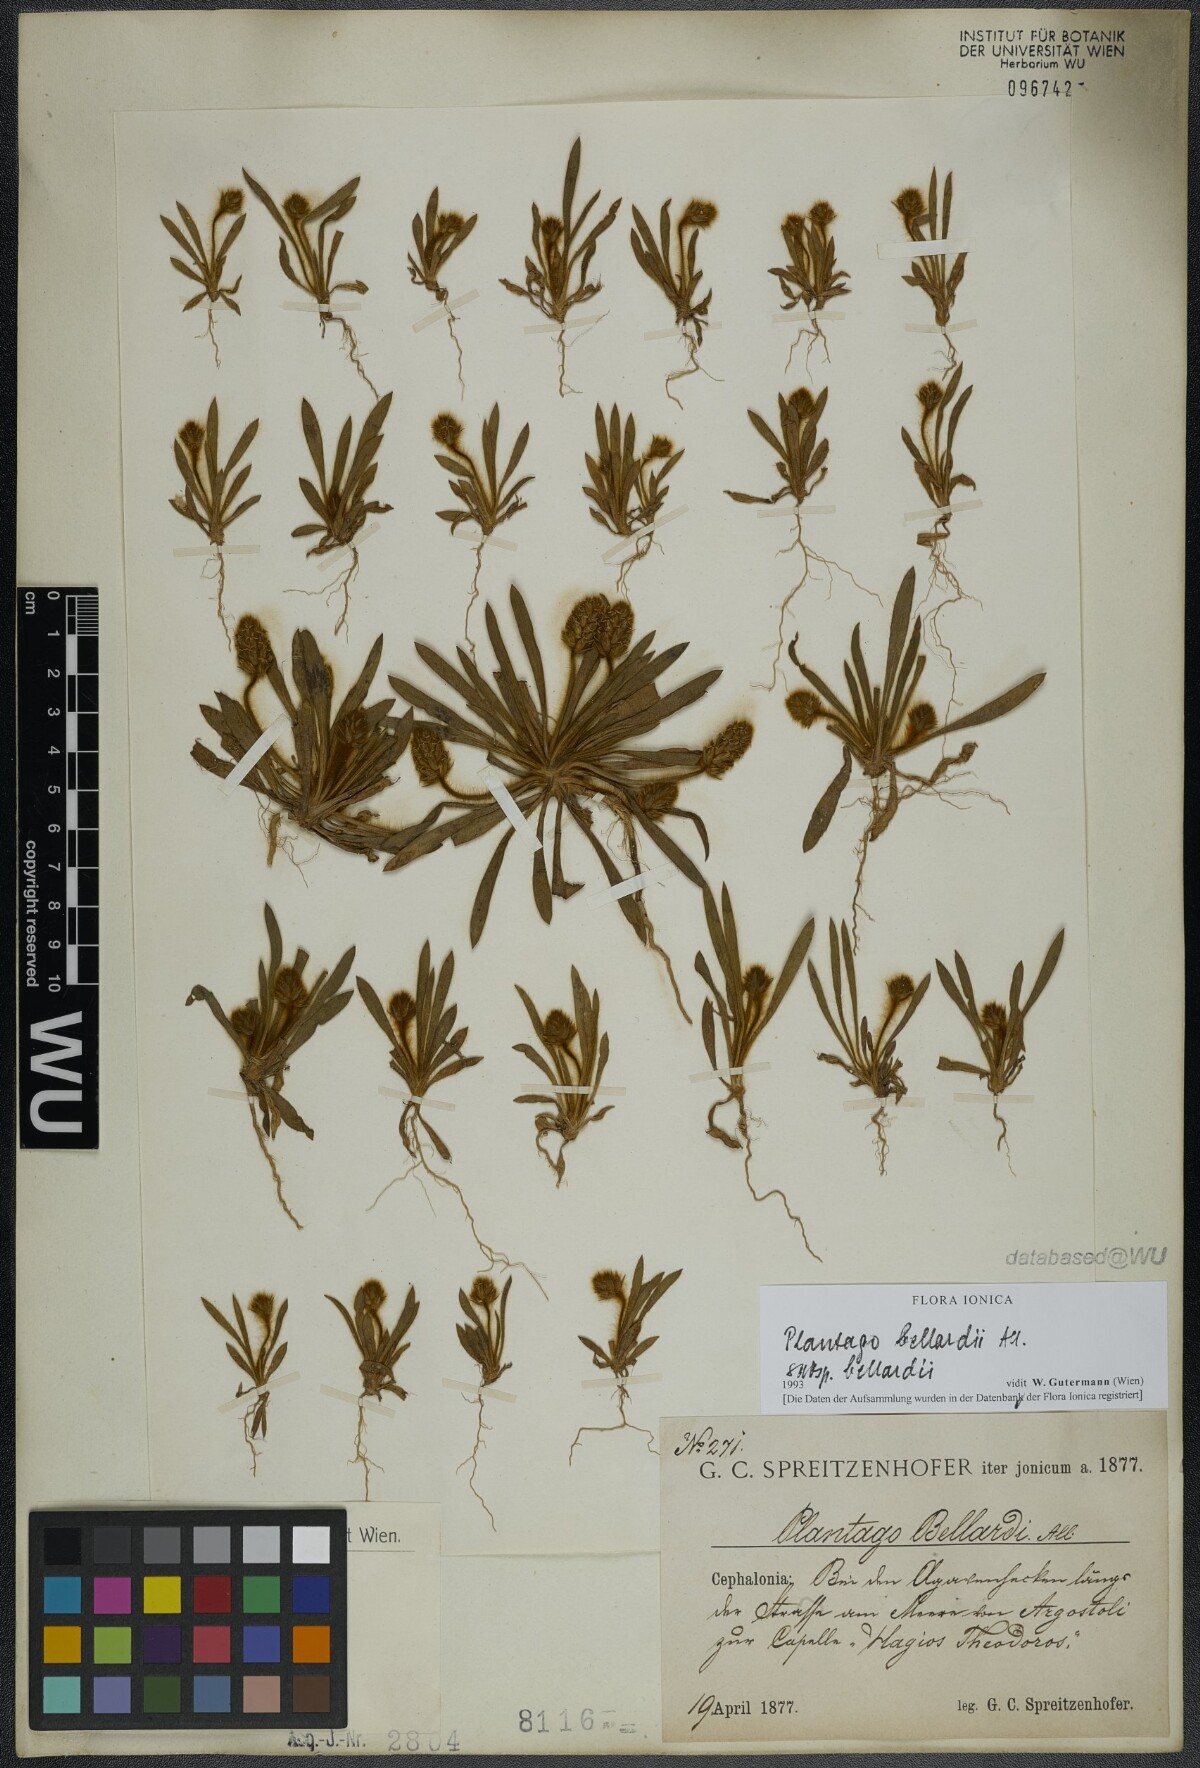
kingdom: Plantae
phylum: Tracheophyta
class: Magnoliopsida
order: Lamiales
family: Plantaginaceae
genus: Plantago
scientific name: Plantago bellardii
